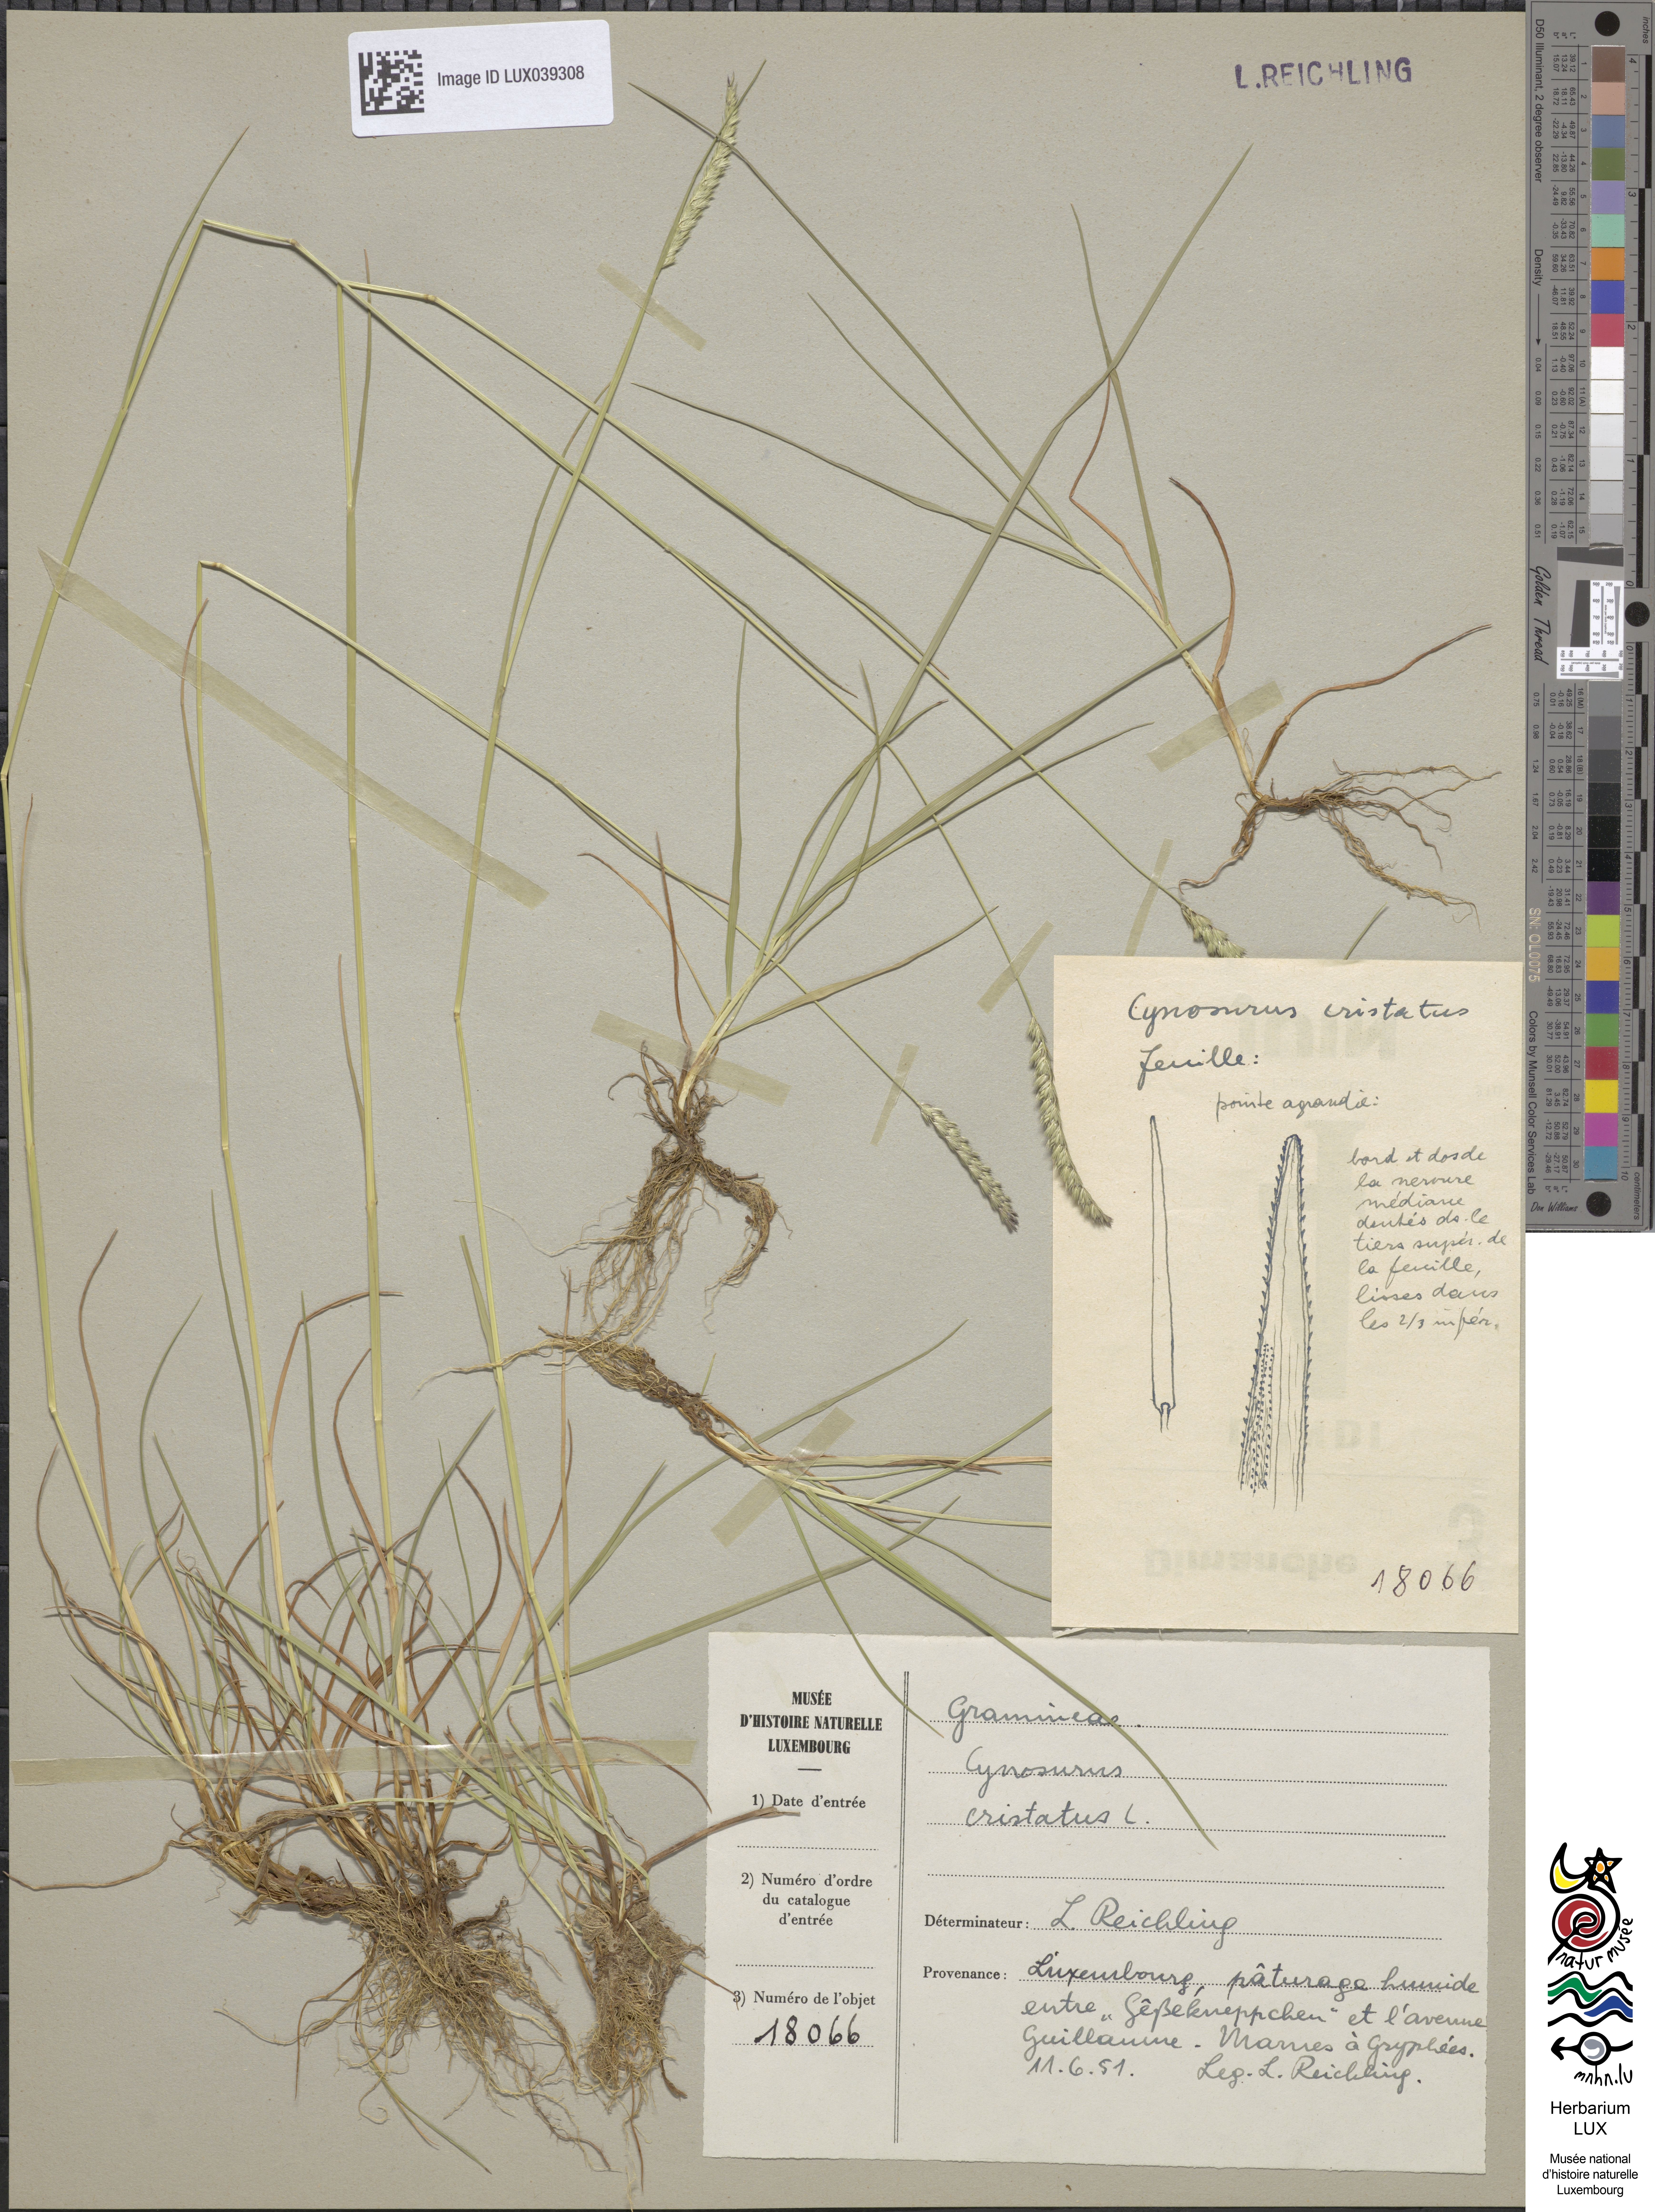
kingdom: Plantae
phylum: Tracheophyta
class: Liliopsida
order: Poales
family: Poaceae
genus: Cynosurus
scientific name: Cynosurus cristatus
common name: Crested dog's-tail
